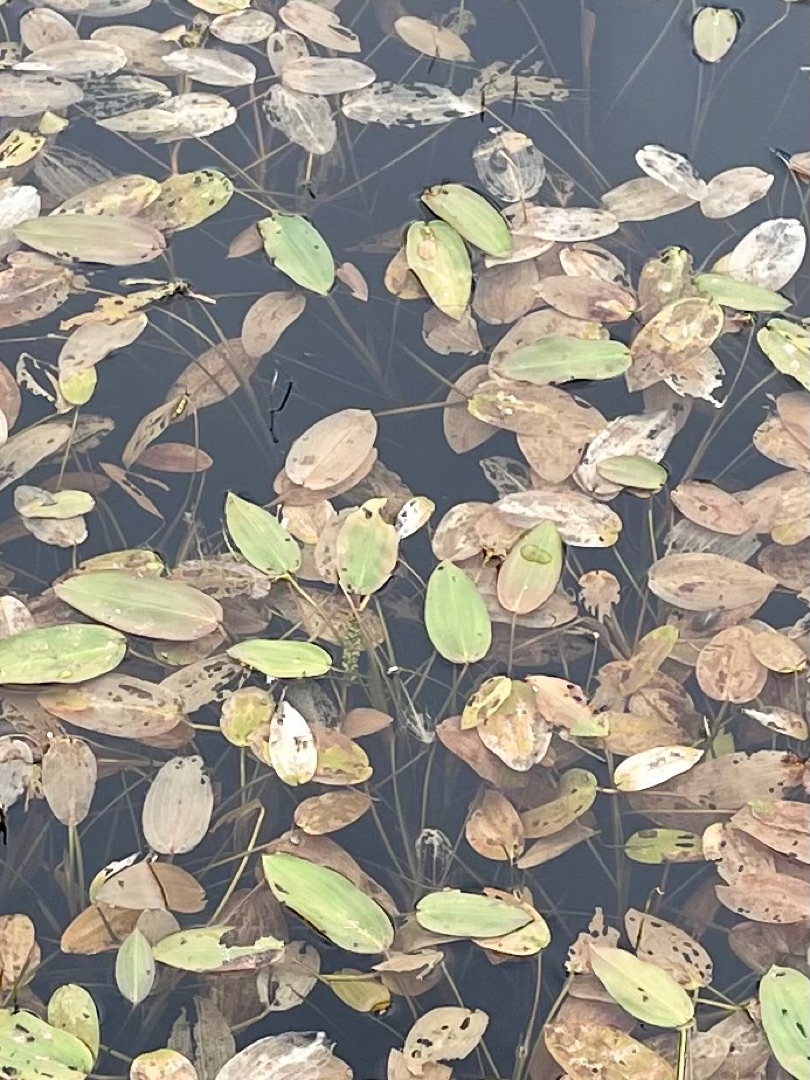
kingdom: Plantae
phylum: Tracheophyta
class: Liliopsida
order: Alismatales
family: Potamogetonaceae
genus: Potamogeton
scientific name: Potamogeton natans
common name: Svømmende vandaks
